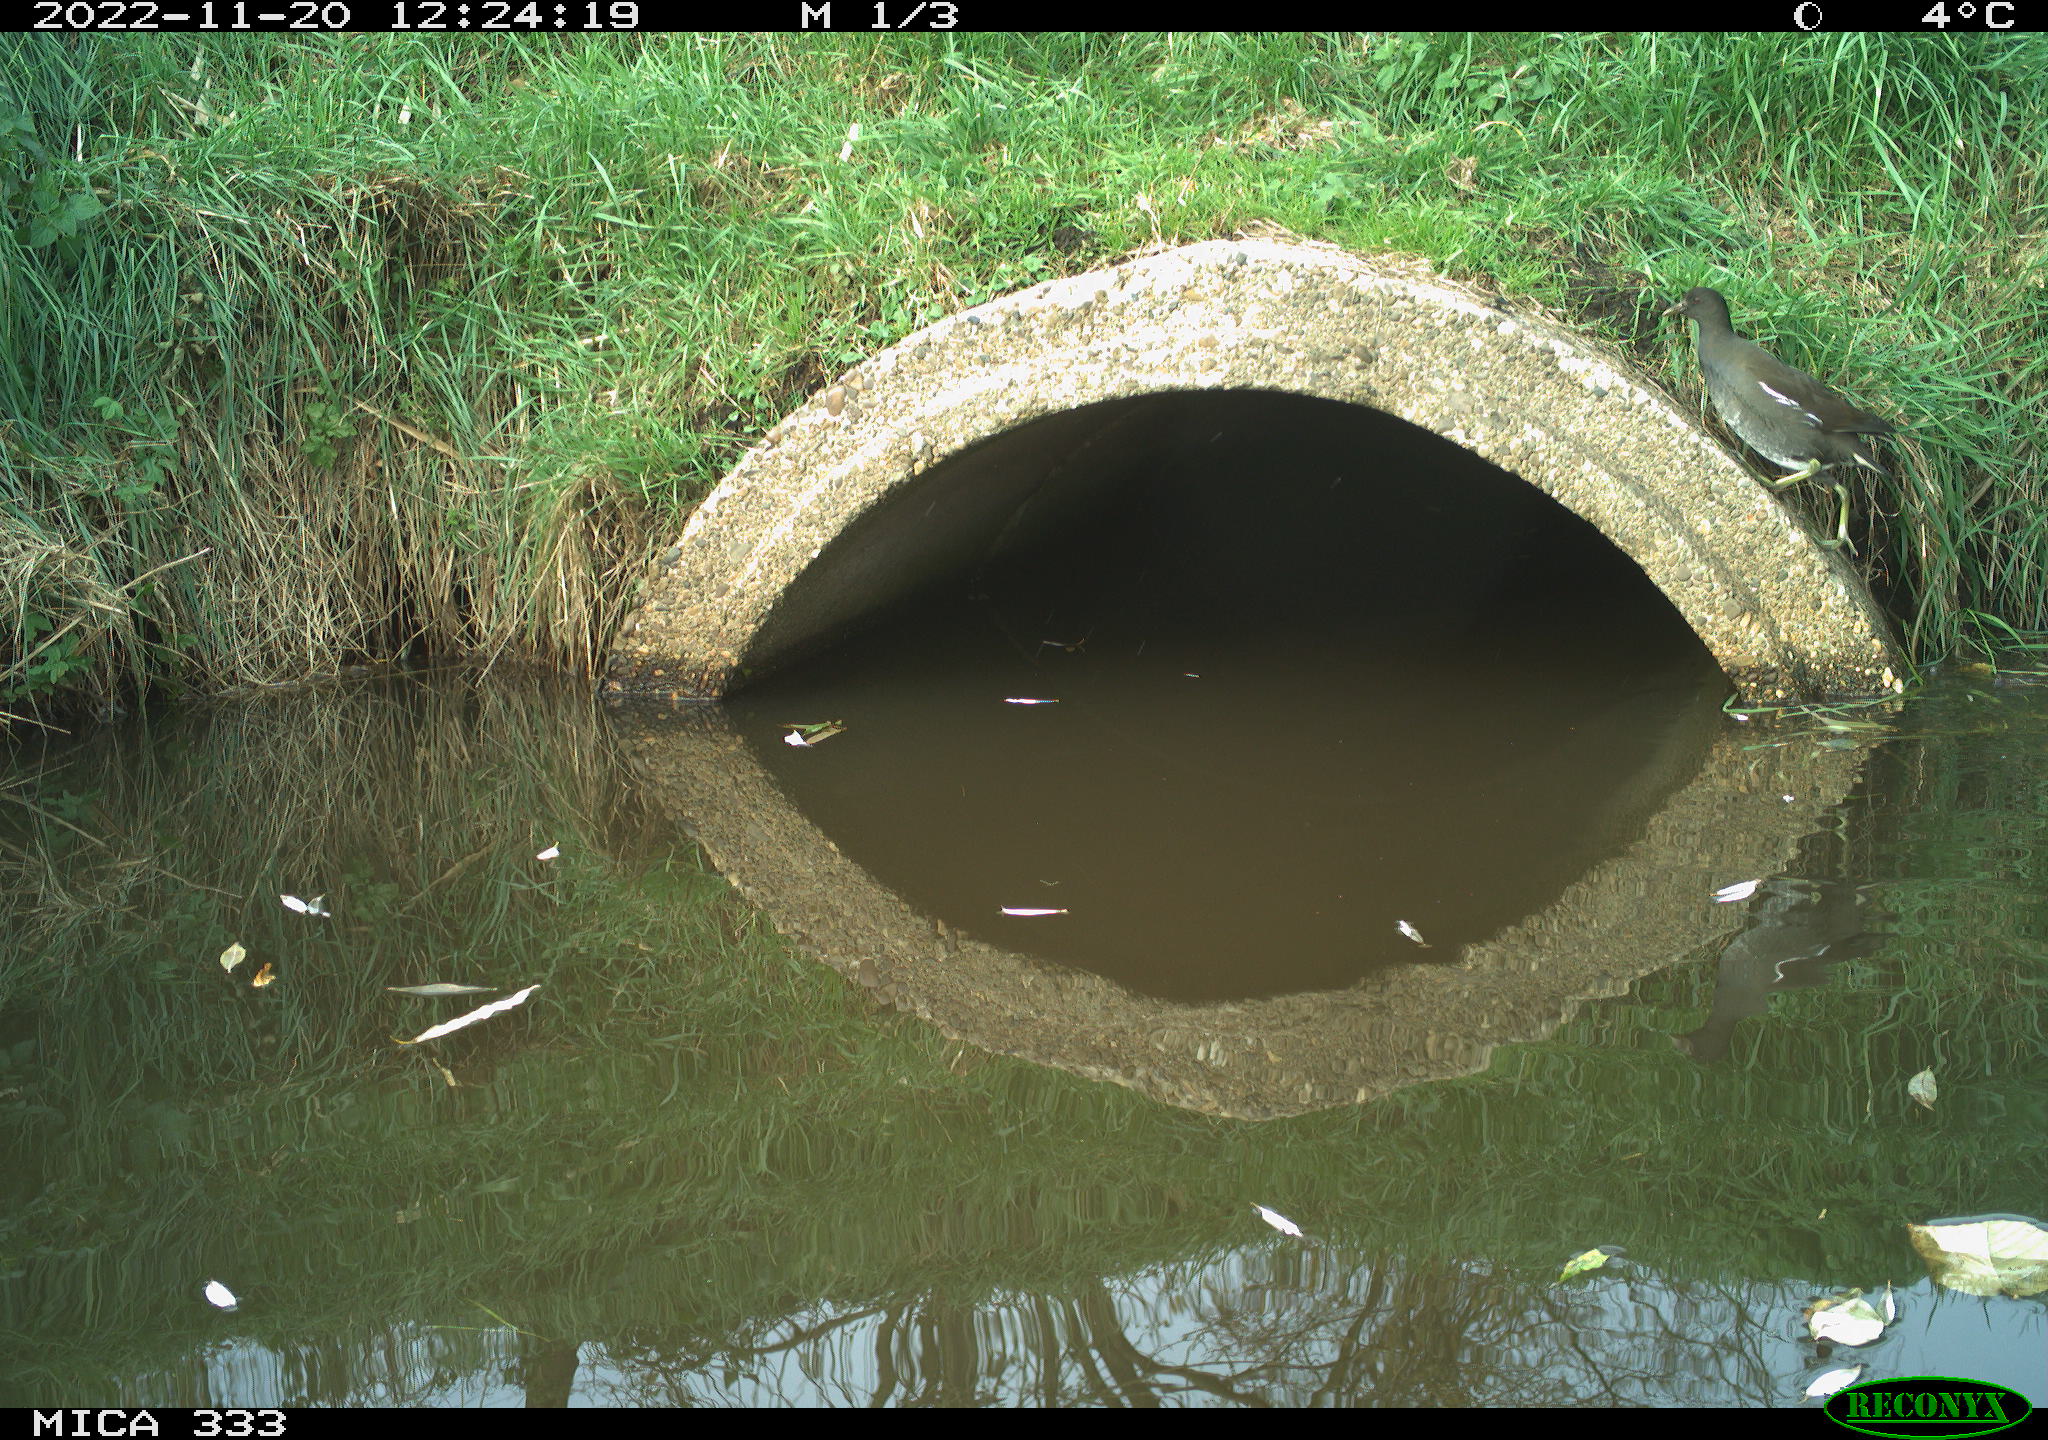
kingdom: Animalia
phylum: Chordata
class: Aves
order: Gruiformes
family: Rallidae
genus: Gallinula
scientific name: Gallinula chloropus
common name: Common moorhen
